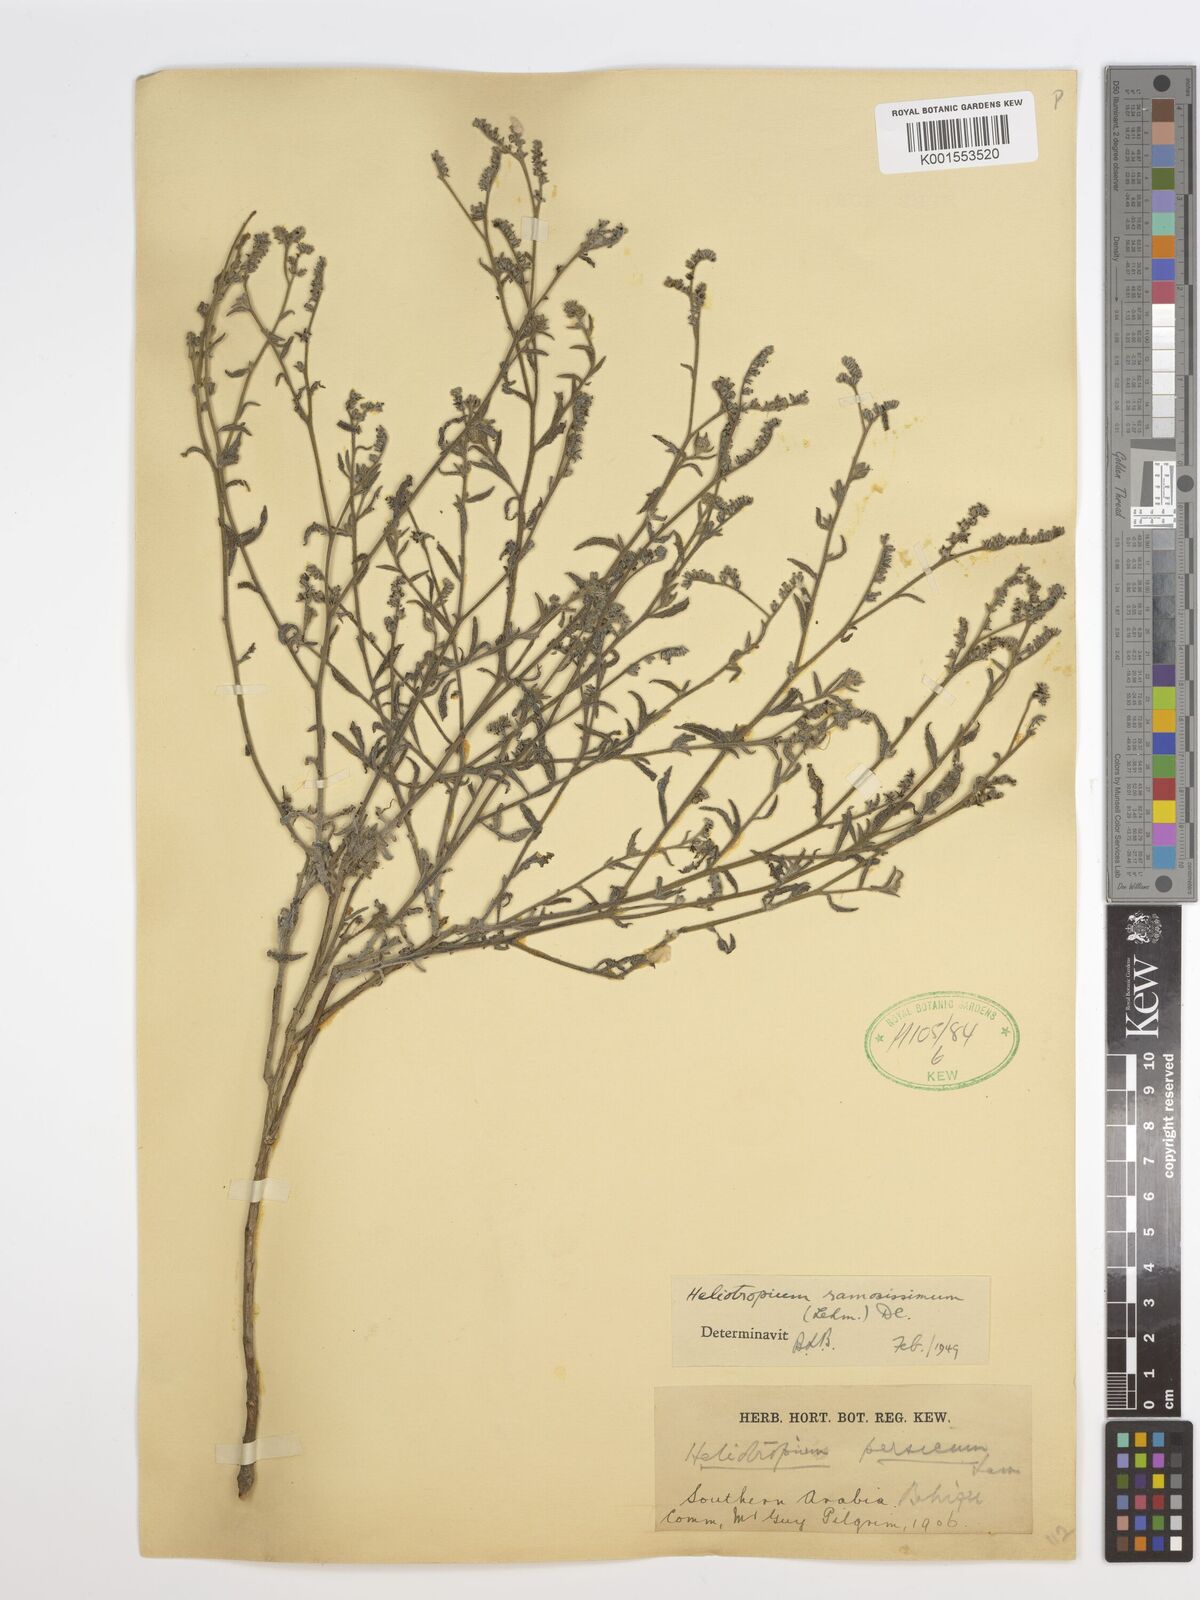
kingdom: Plantae
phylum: Tracheophyta
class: Magnoliopsida
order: Boraginales
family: Heliotropiaceae
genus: Heliotropium
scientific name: Heliotropium rotundifolium
